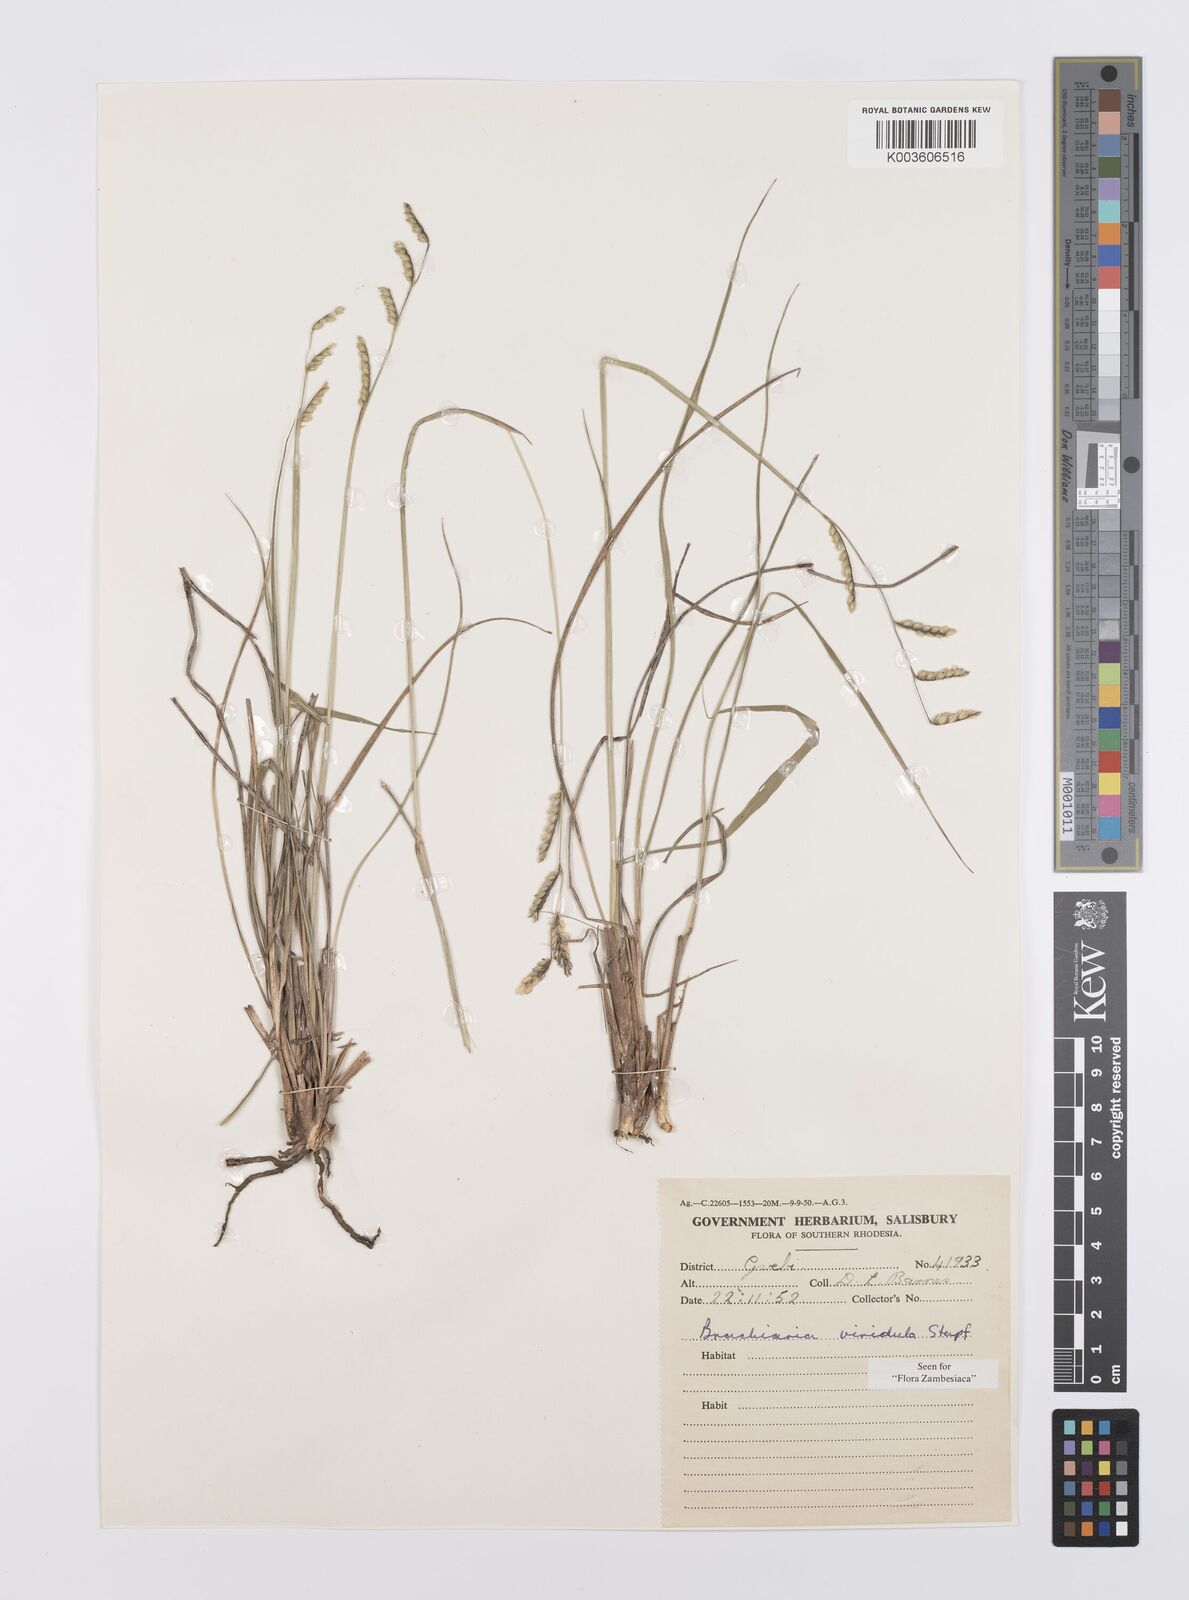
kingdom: Plantae
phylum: Tracheophyta
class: Liliopsida
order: Poales
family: Poaceae
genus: Urochloa
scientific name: Urochloa bovonei
